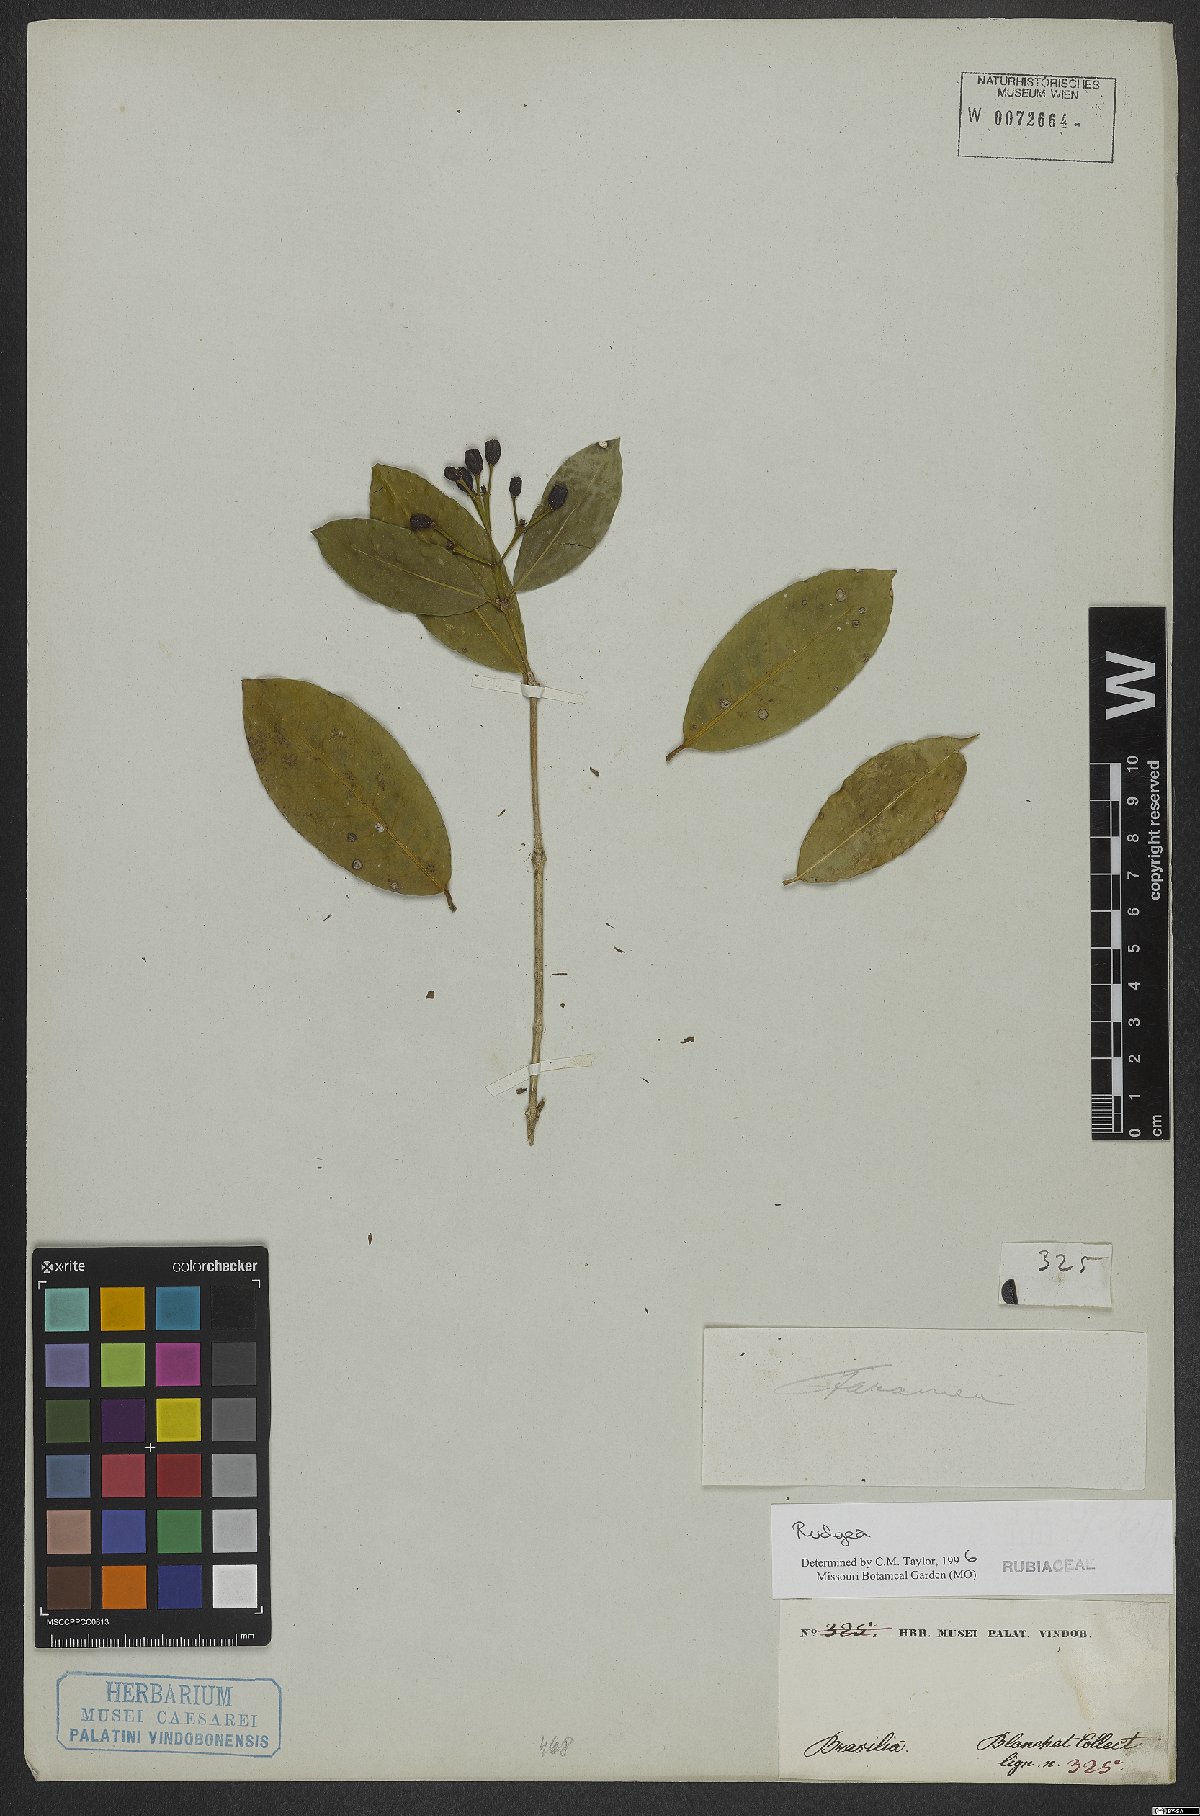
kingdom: Plantae
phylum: Tracheophyta
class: Magnoliopsida
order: Gentianales
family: Rubiaceae
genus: Rudgea
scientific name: Rudgea
